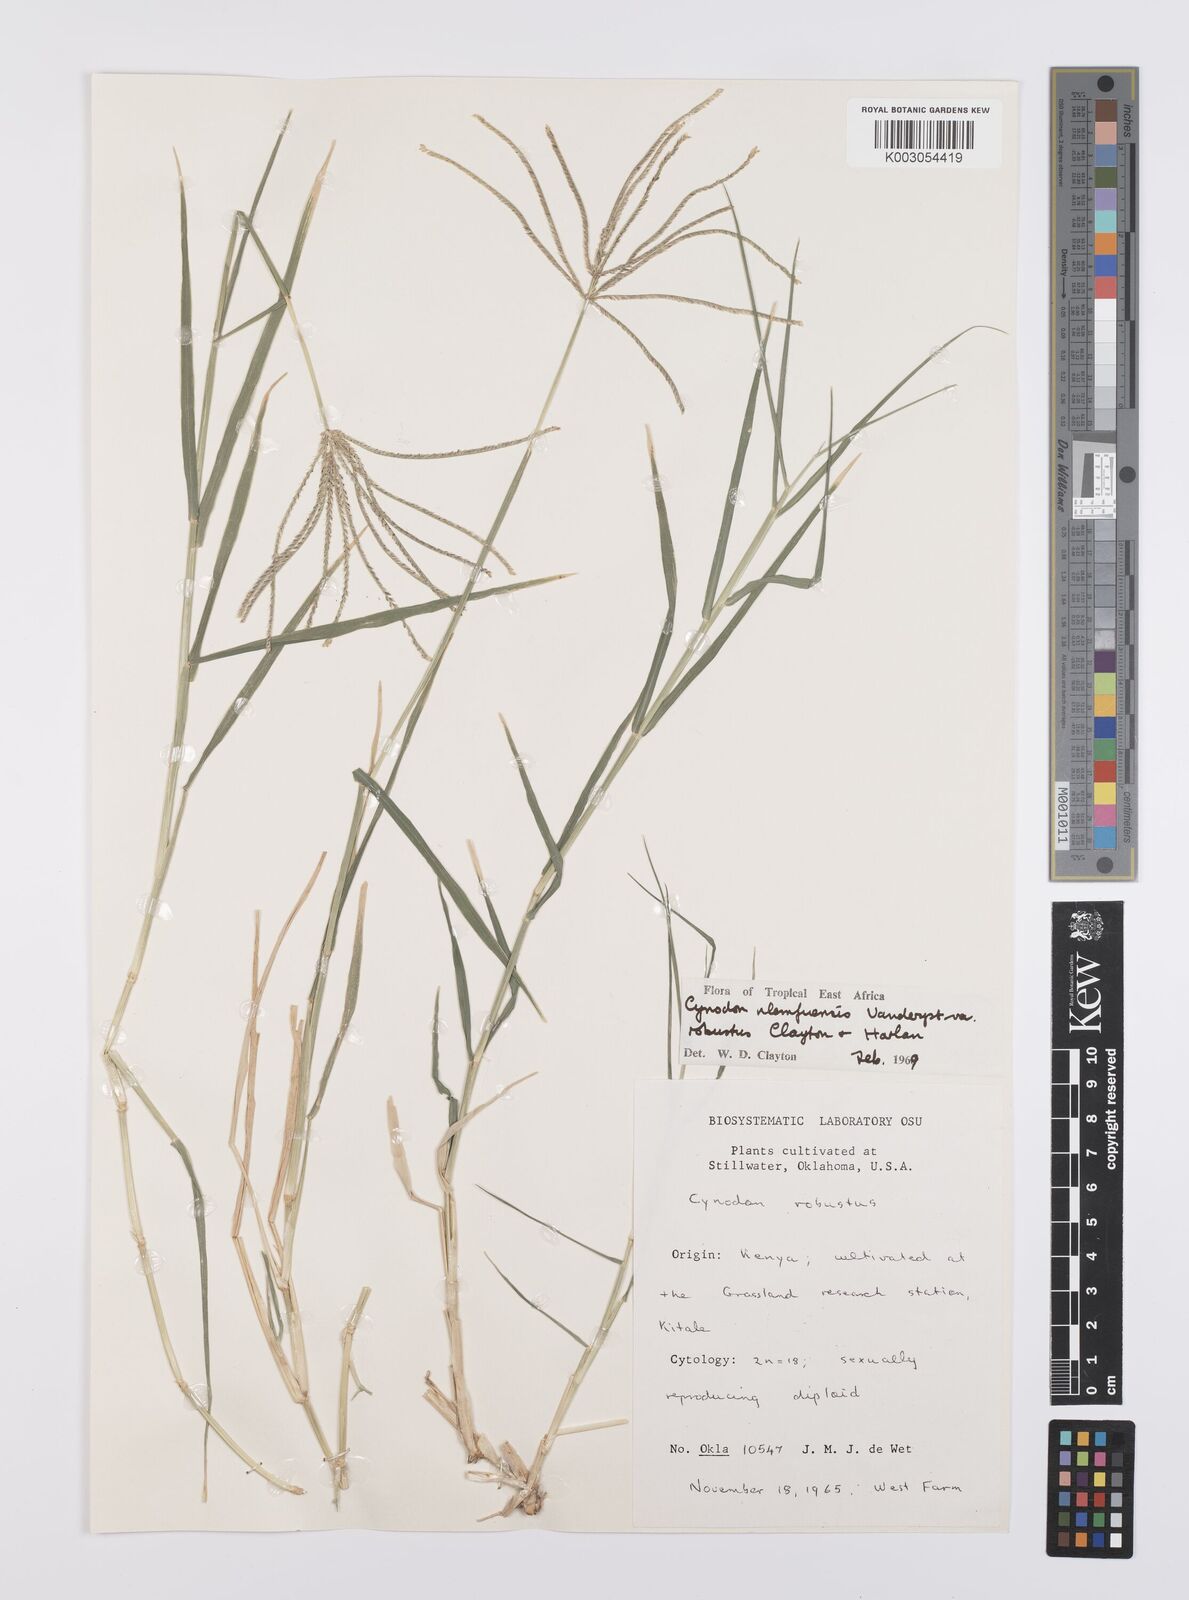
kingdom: Plantae
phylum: Tracheophyta
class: Liliopsida
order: Poales
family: Poaceae
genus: Cynodon
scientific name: Cynodon nlemfuensis
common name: African bermudagrass
